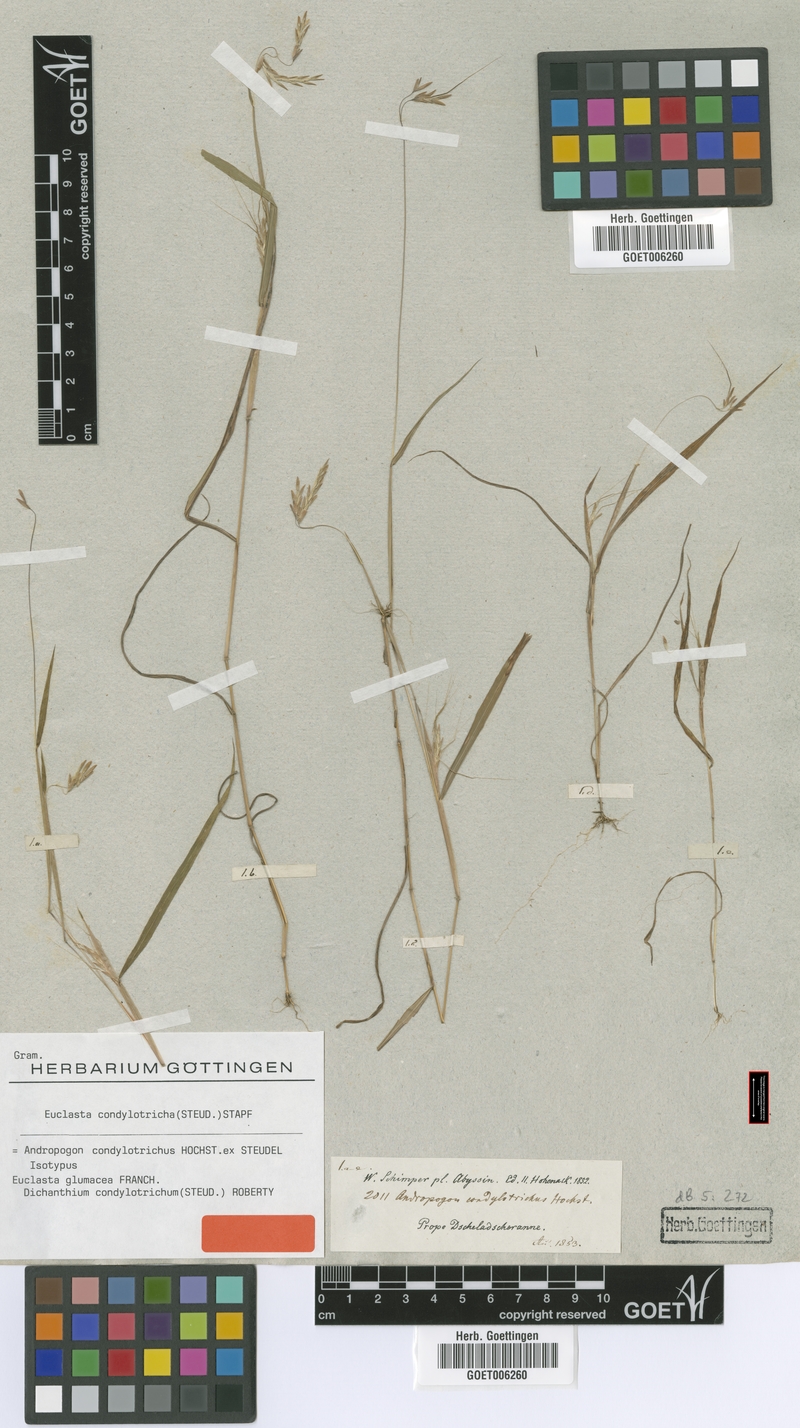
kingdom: Plantae
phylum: Tracheophyta
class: Liliopsida
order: Poales
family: Poaceae
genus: Euclasta
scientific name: Euclasta
